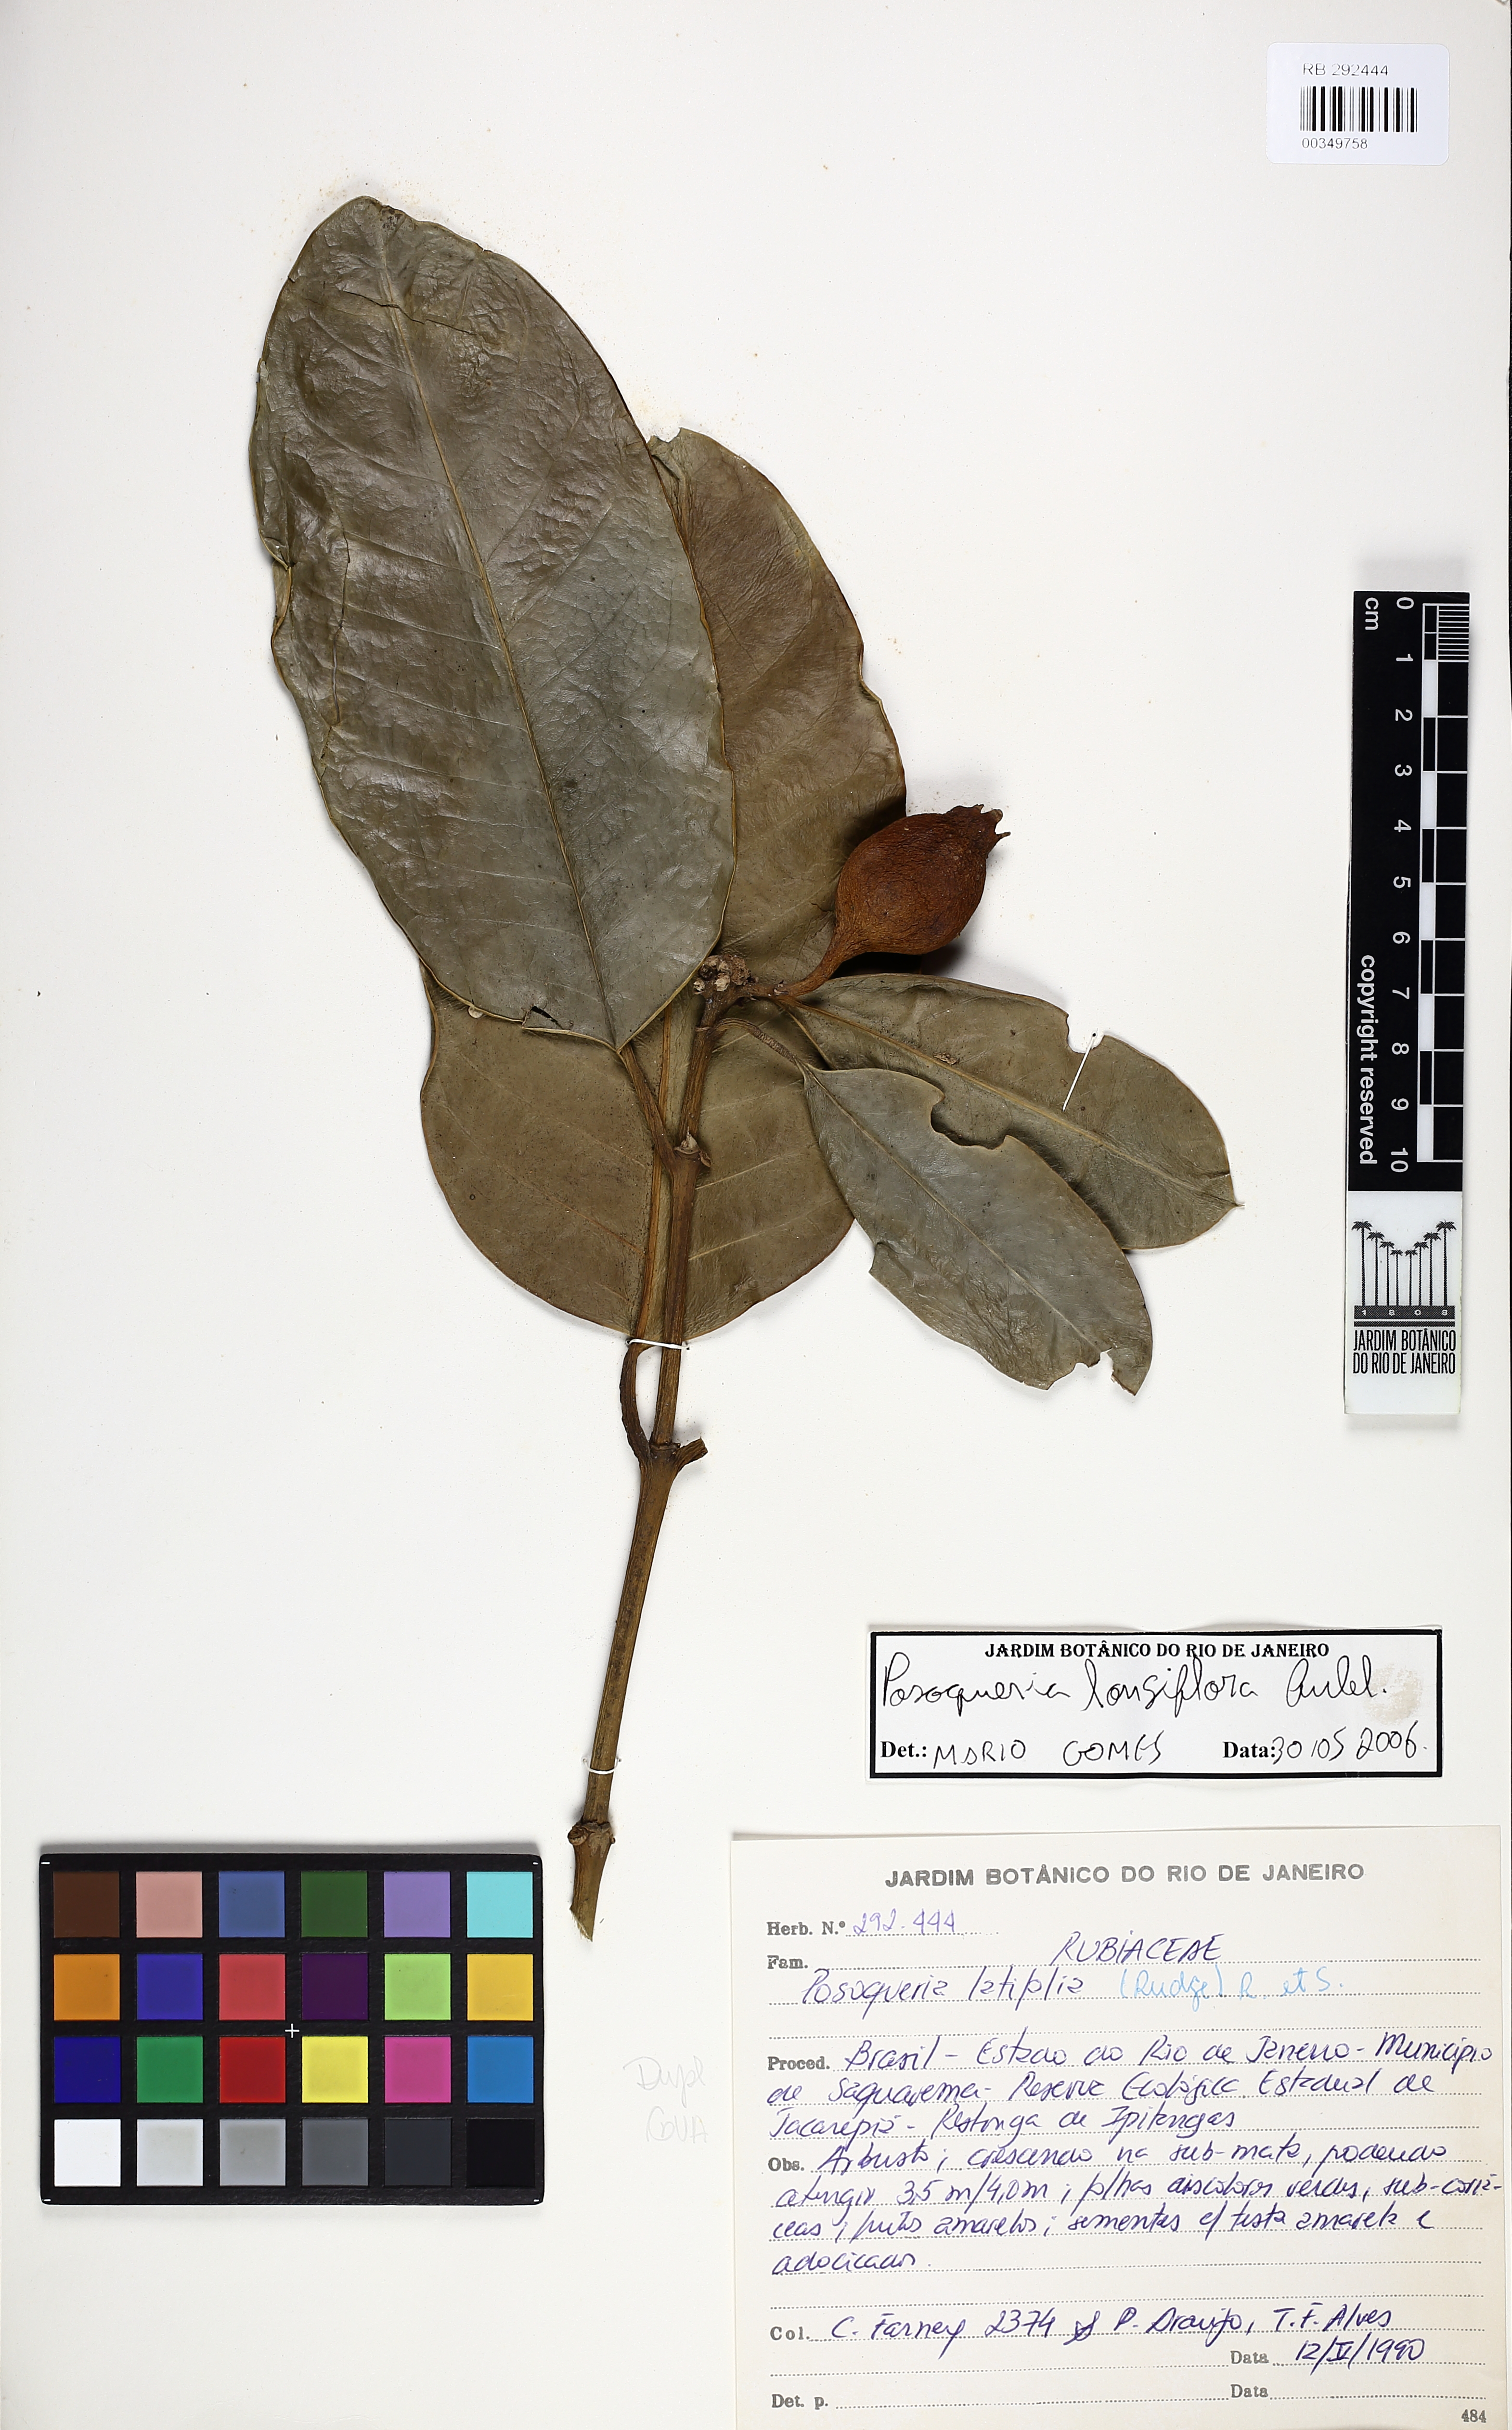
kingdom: Plantae
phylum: Tracheophyta
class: Magnoliopsida
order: Gentianales
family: Rubiaceae
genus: Posoqueria
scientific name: Posoqueria latifolia
